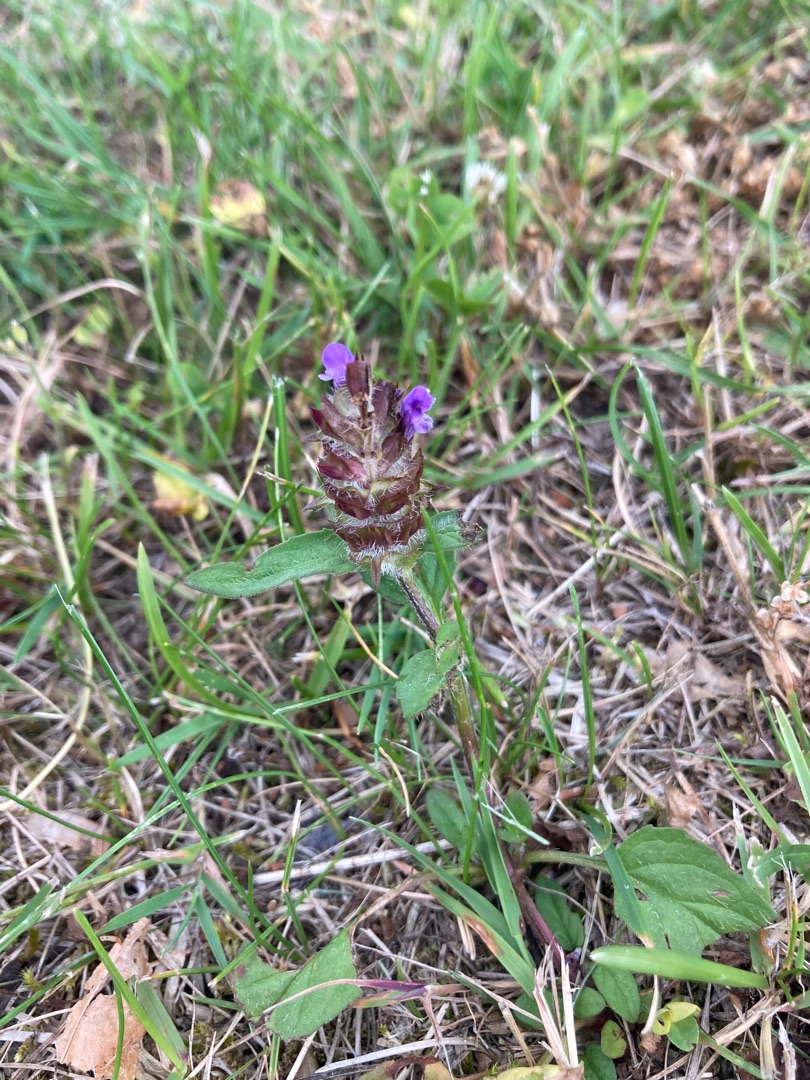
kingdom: Plantae
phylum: Tracheophyta
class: Magnoliopsida
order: Lamiales
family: Lamiaceae
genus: Prunella
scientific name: Prunella vulgaris
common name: Almindelig brunelle
